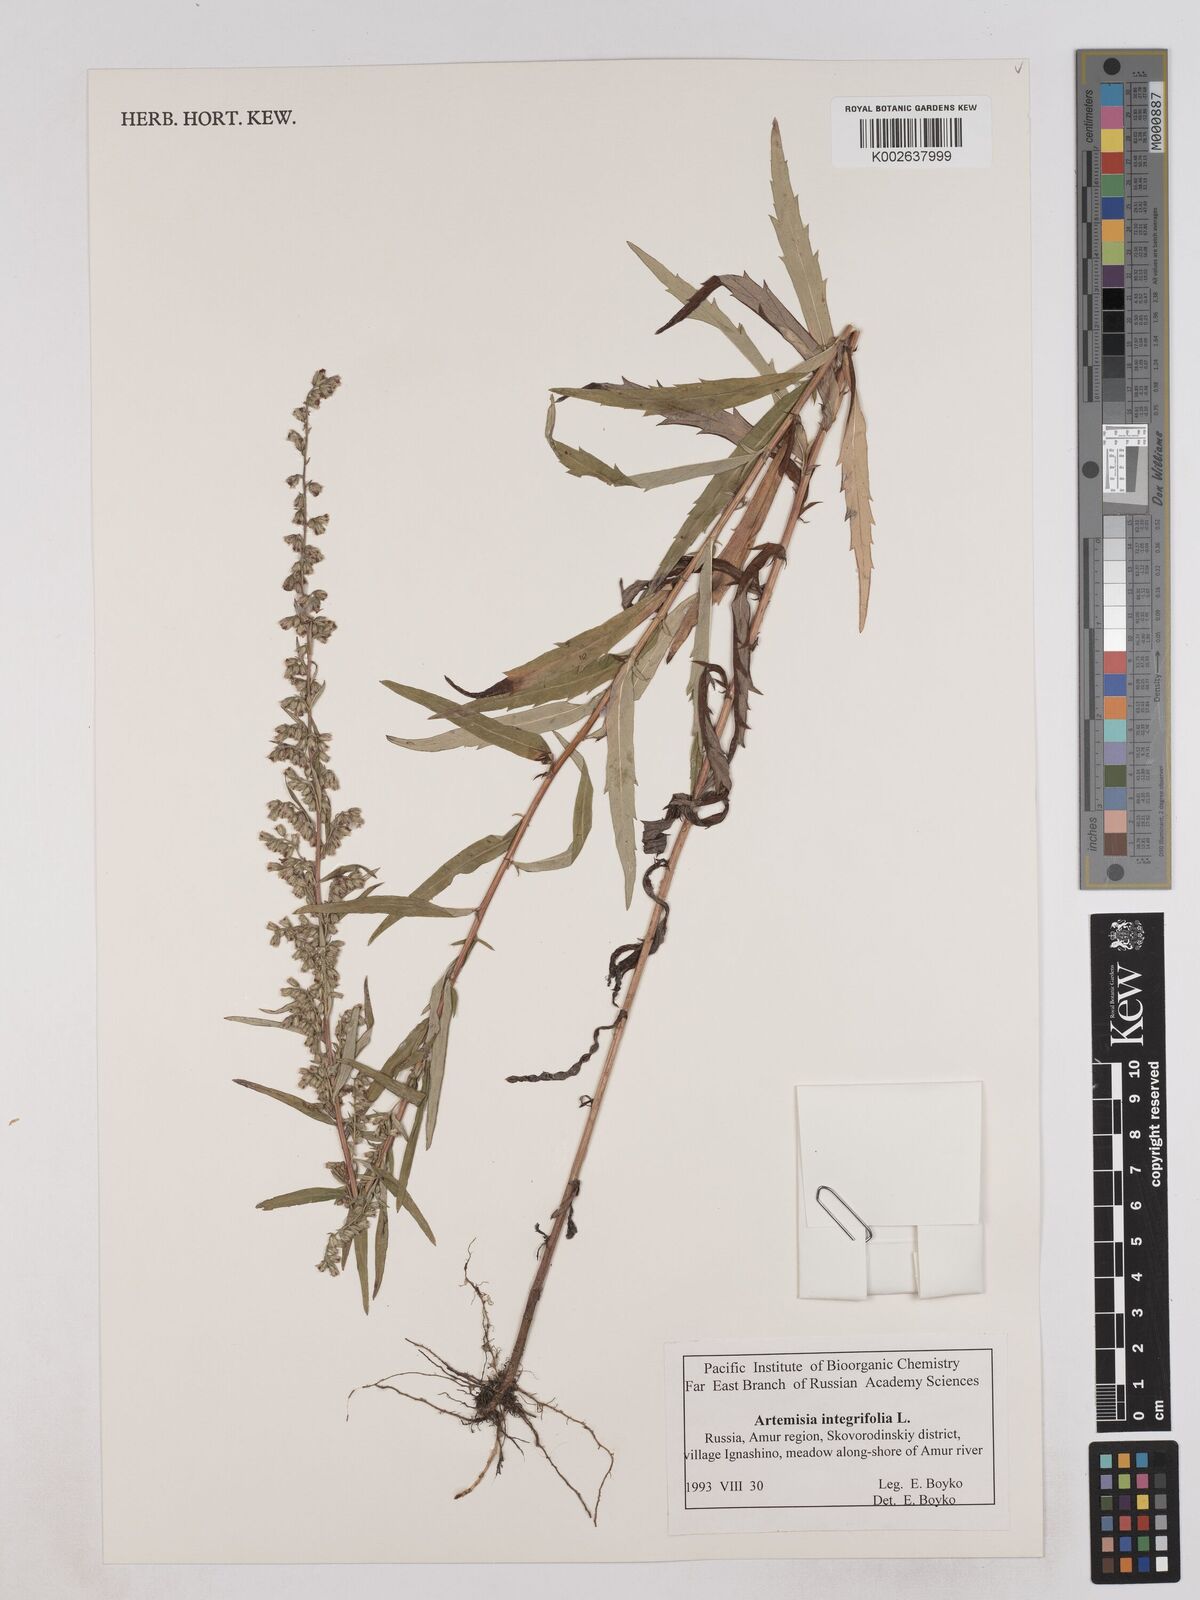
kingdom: Plantae
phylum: Tracheophyta
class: Magnoliopsida
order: Asterales
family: Asteraceae
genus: Artemisia
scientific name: Artemisia integrifolia
